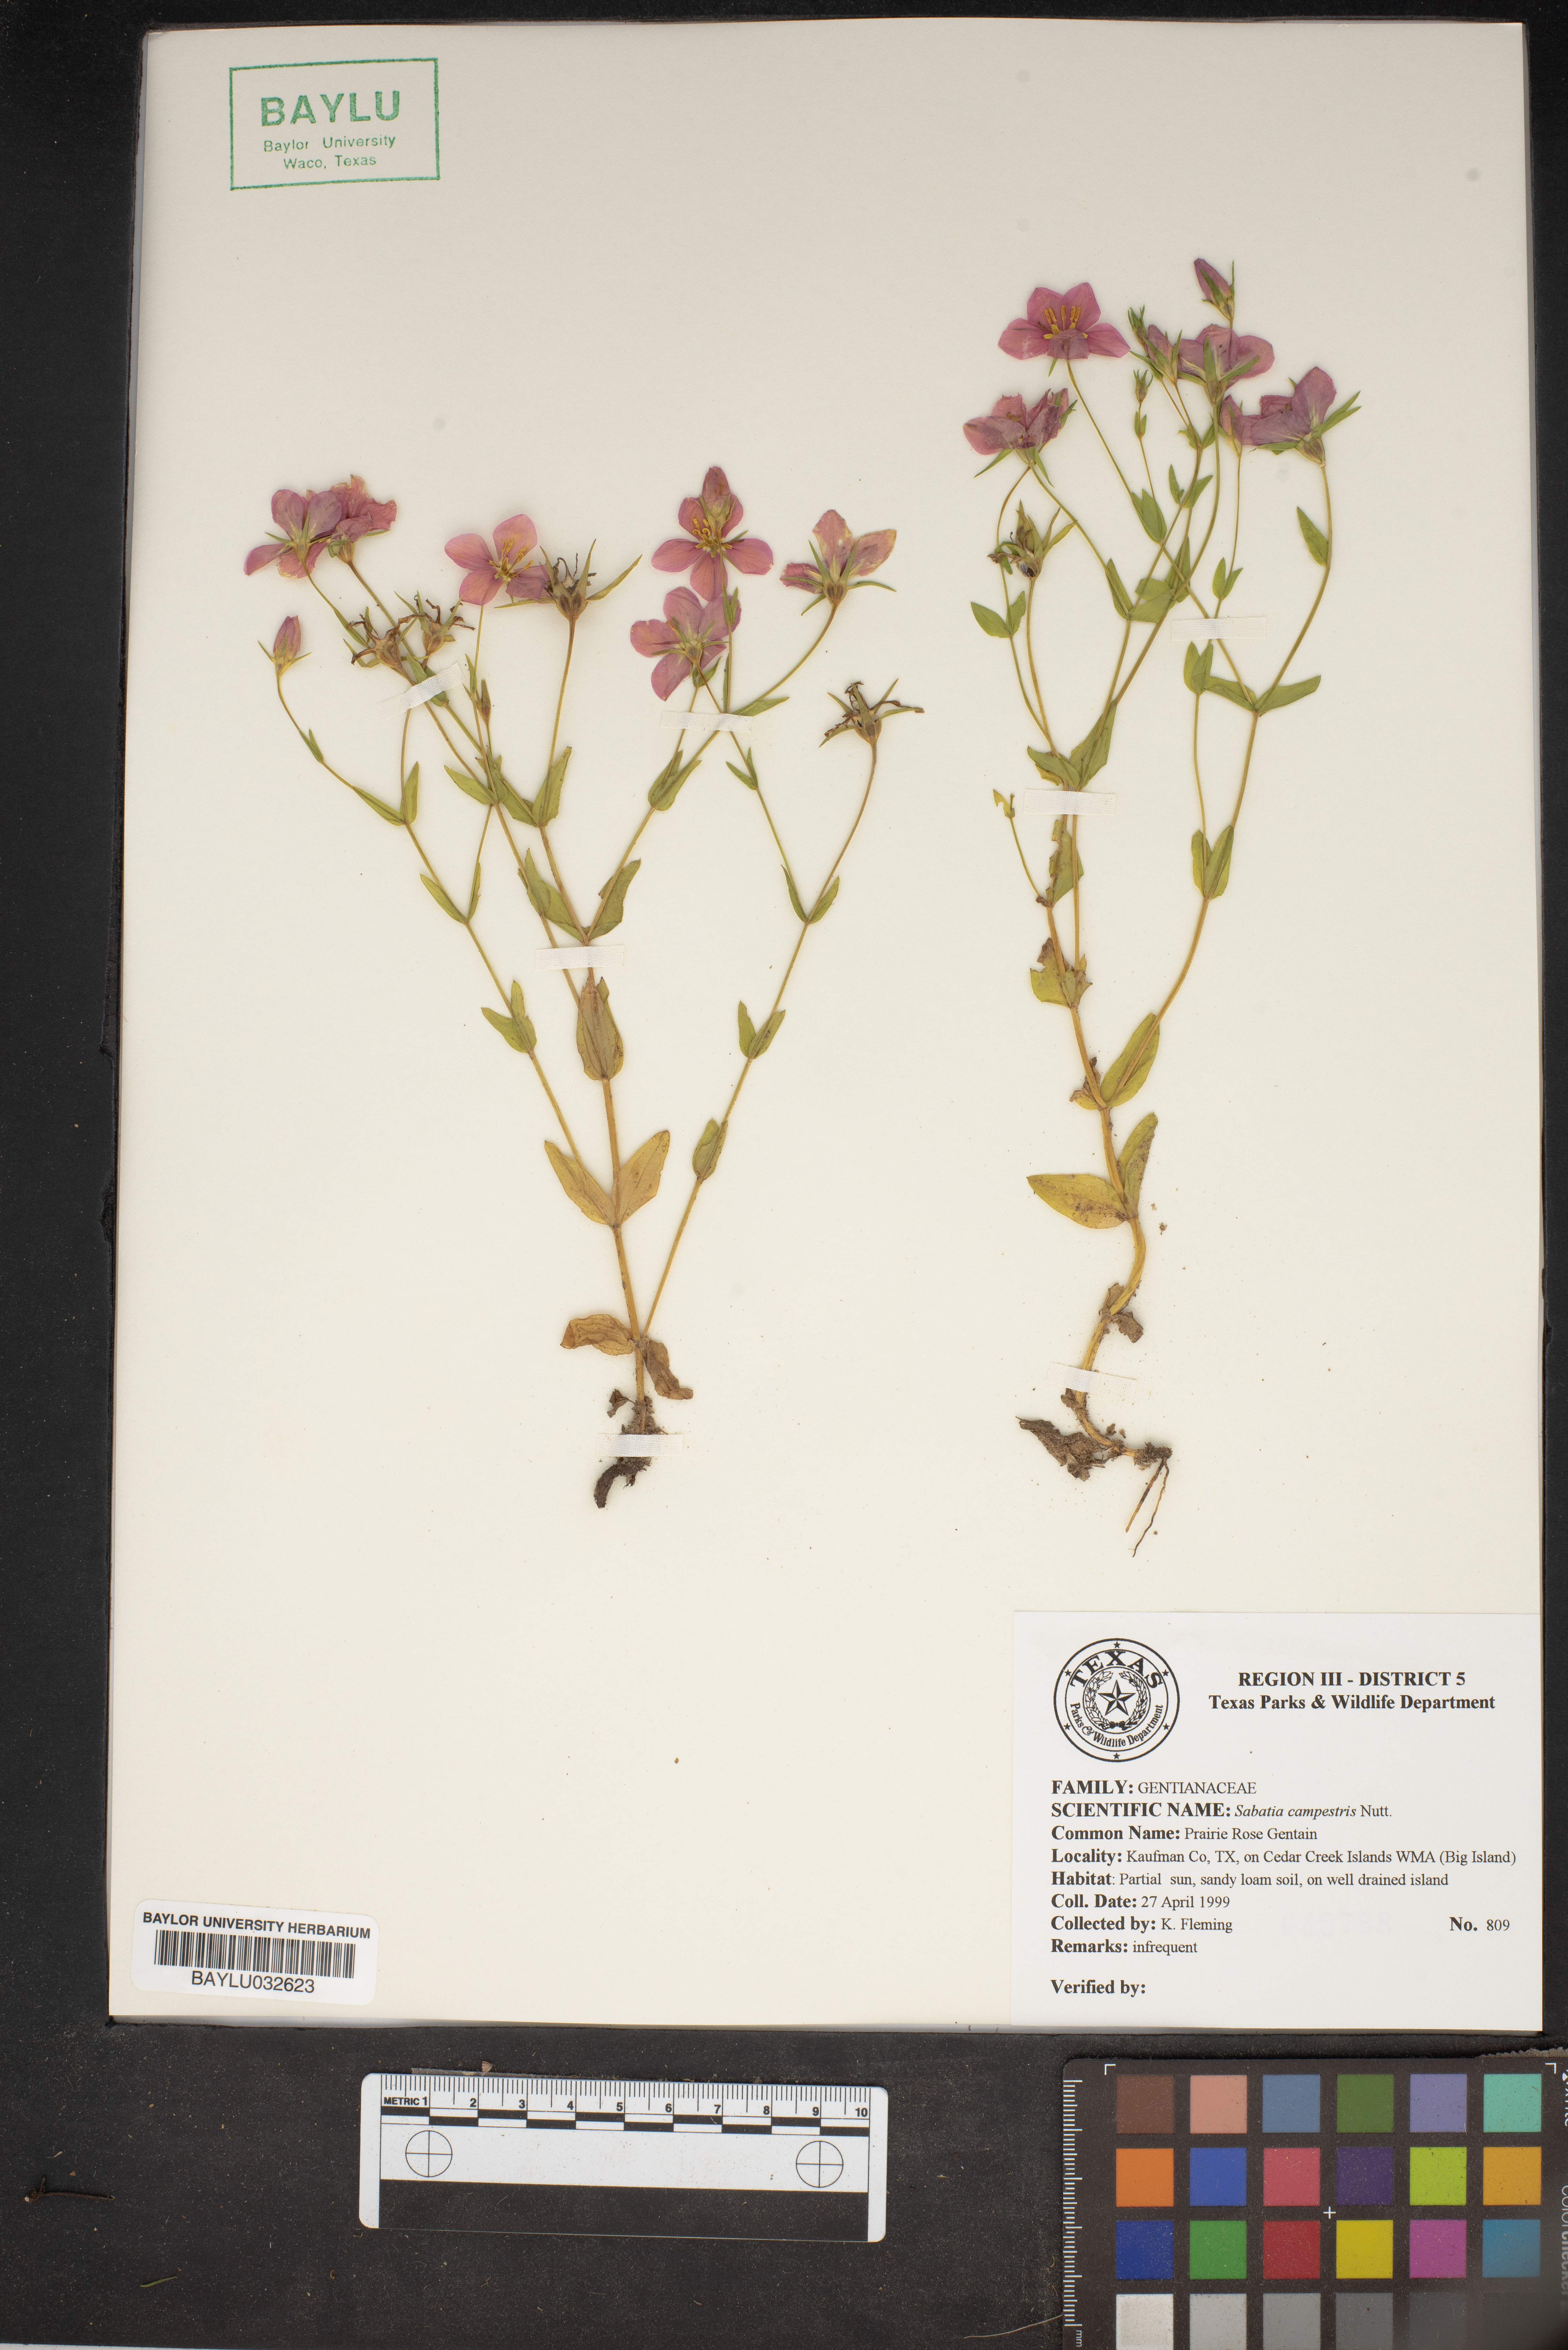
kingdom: Plantae
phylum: Tracheophyta
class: Magnoliopsida
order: Gentianales
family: Gentianaceae
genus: Sabatia
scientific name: Sabatia campestris
